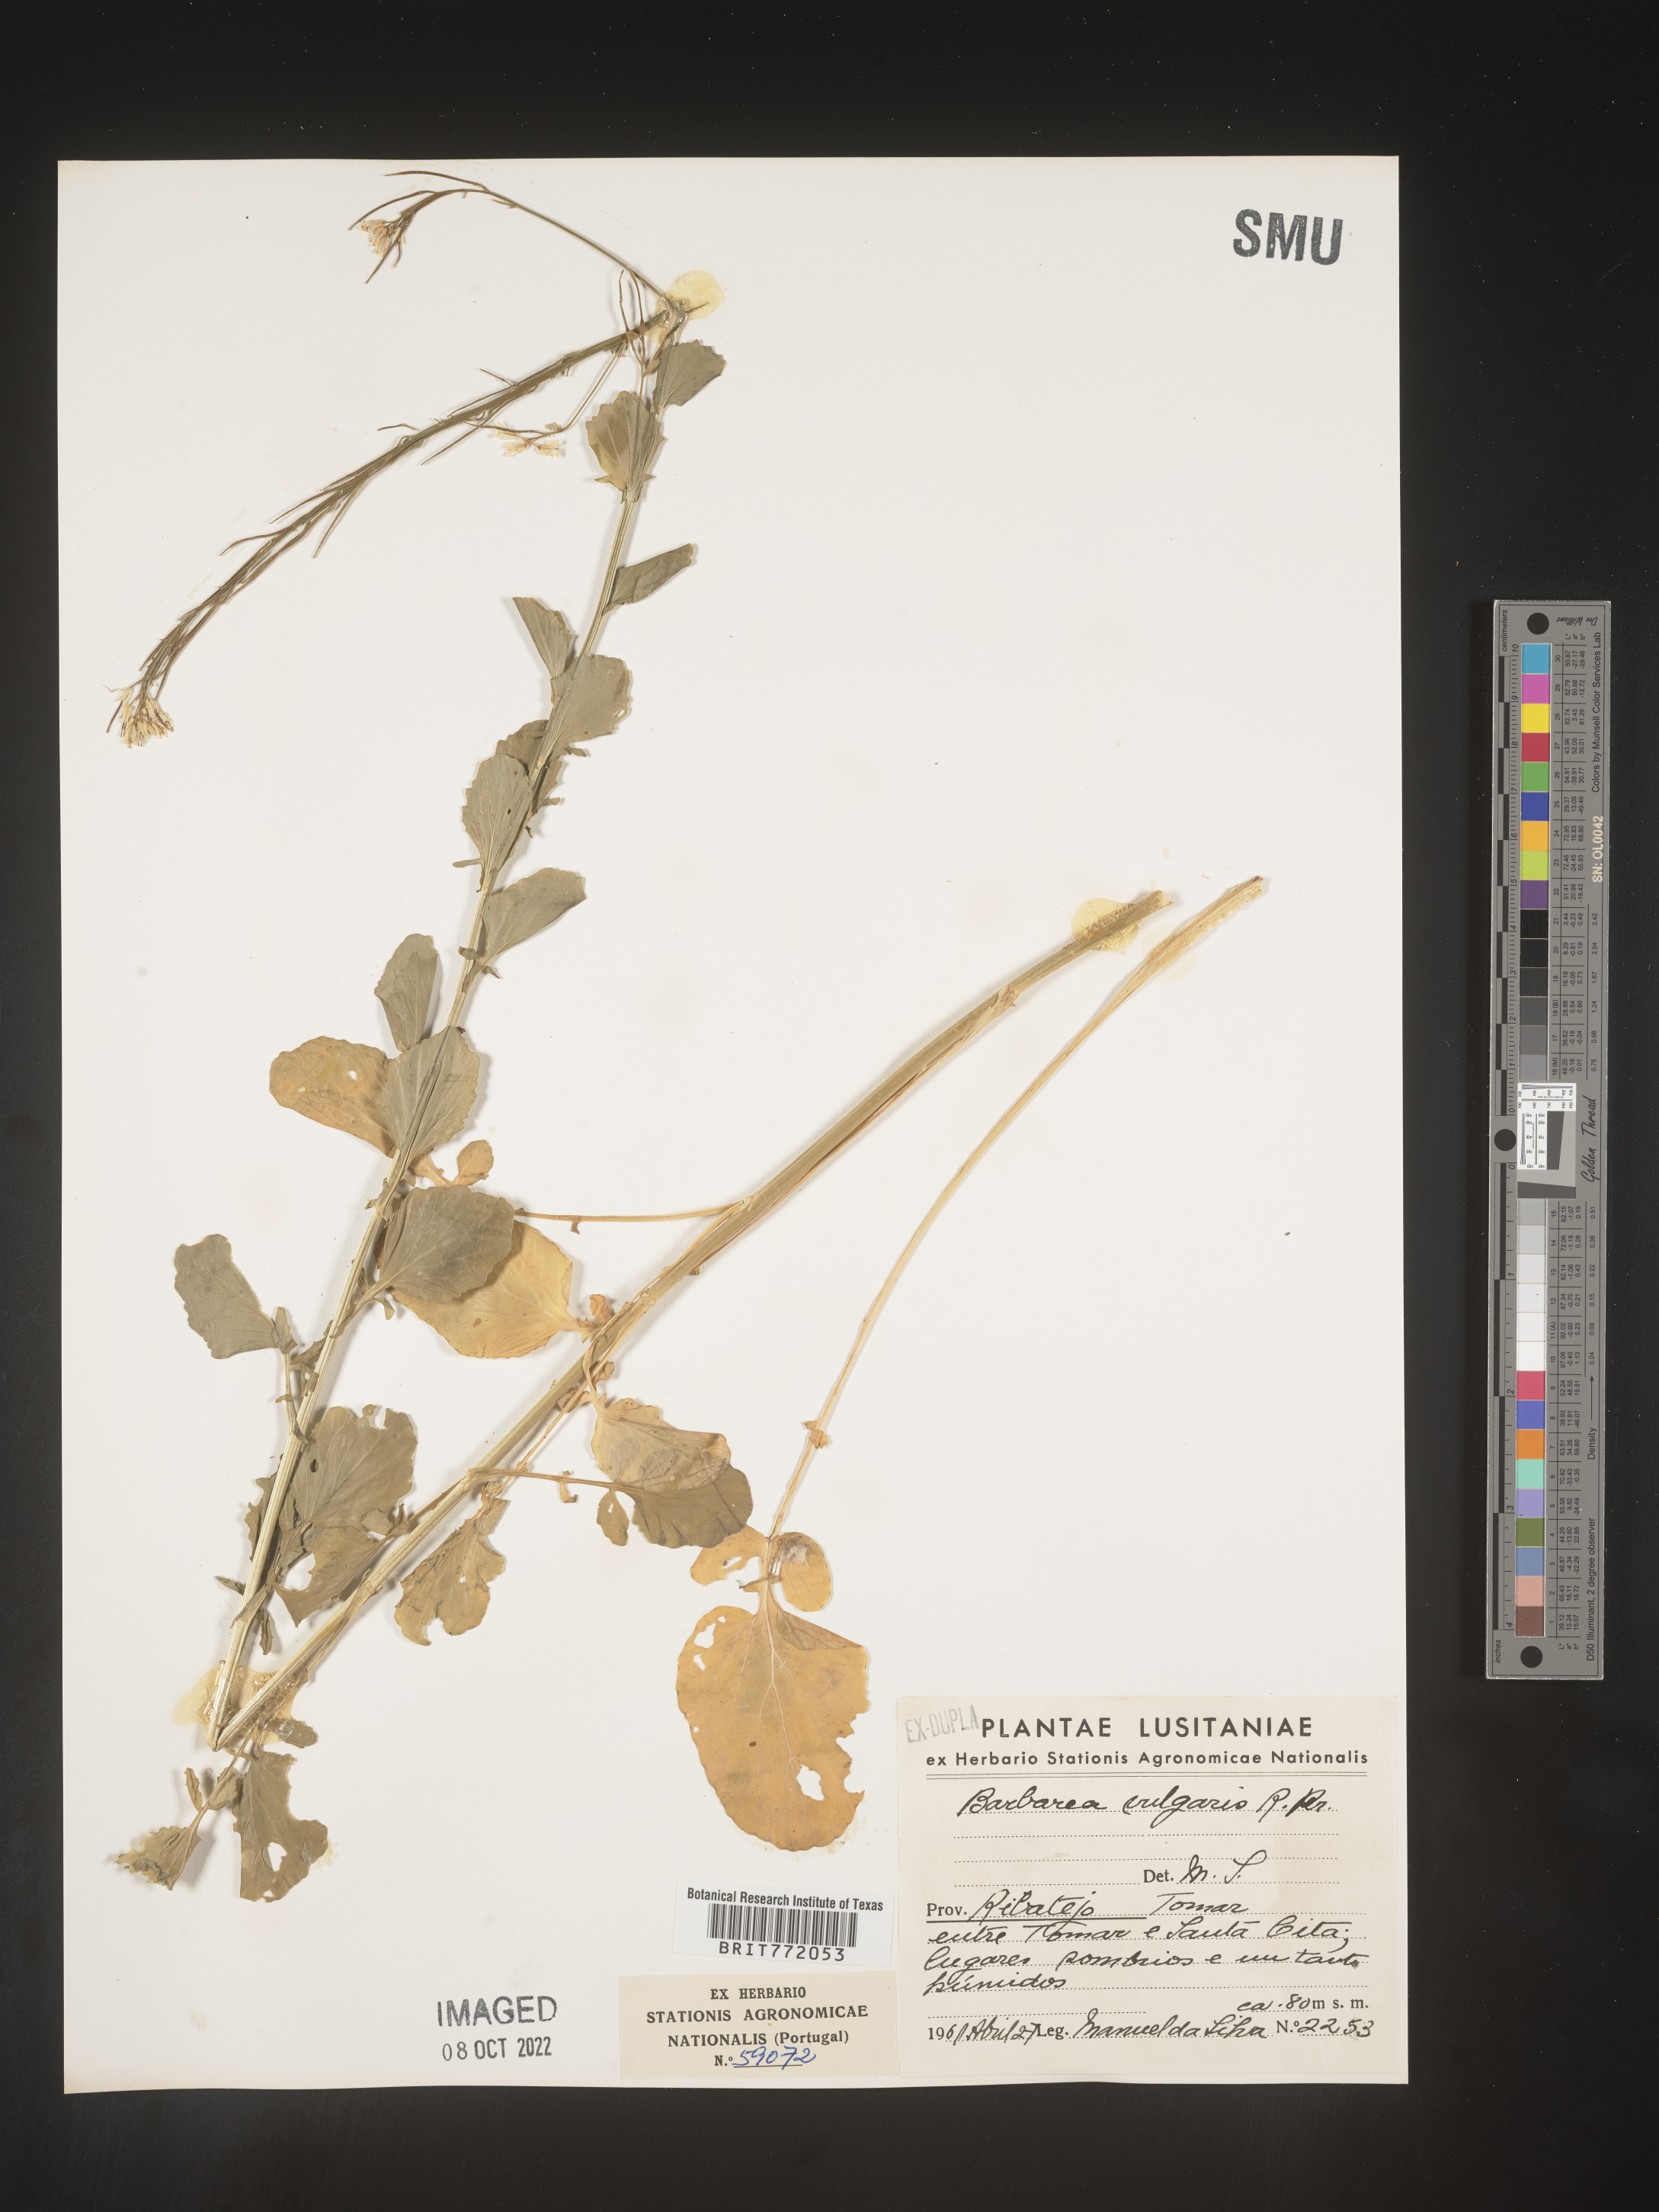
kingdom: Plantae
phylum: Tracheophyta
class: Magnoliopsida
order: Brassicales
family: Brassicaceae
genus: Barbarea
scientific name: Barbarea
